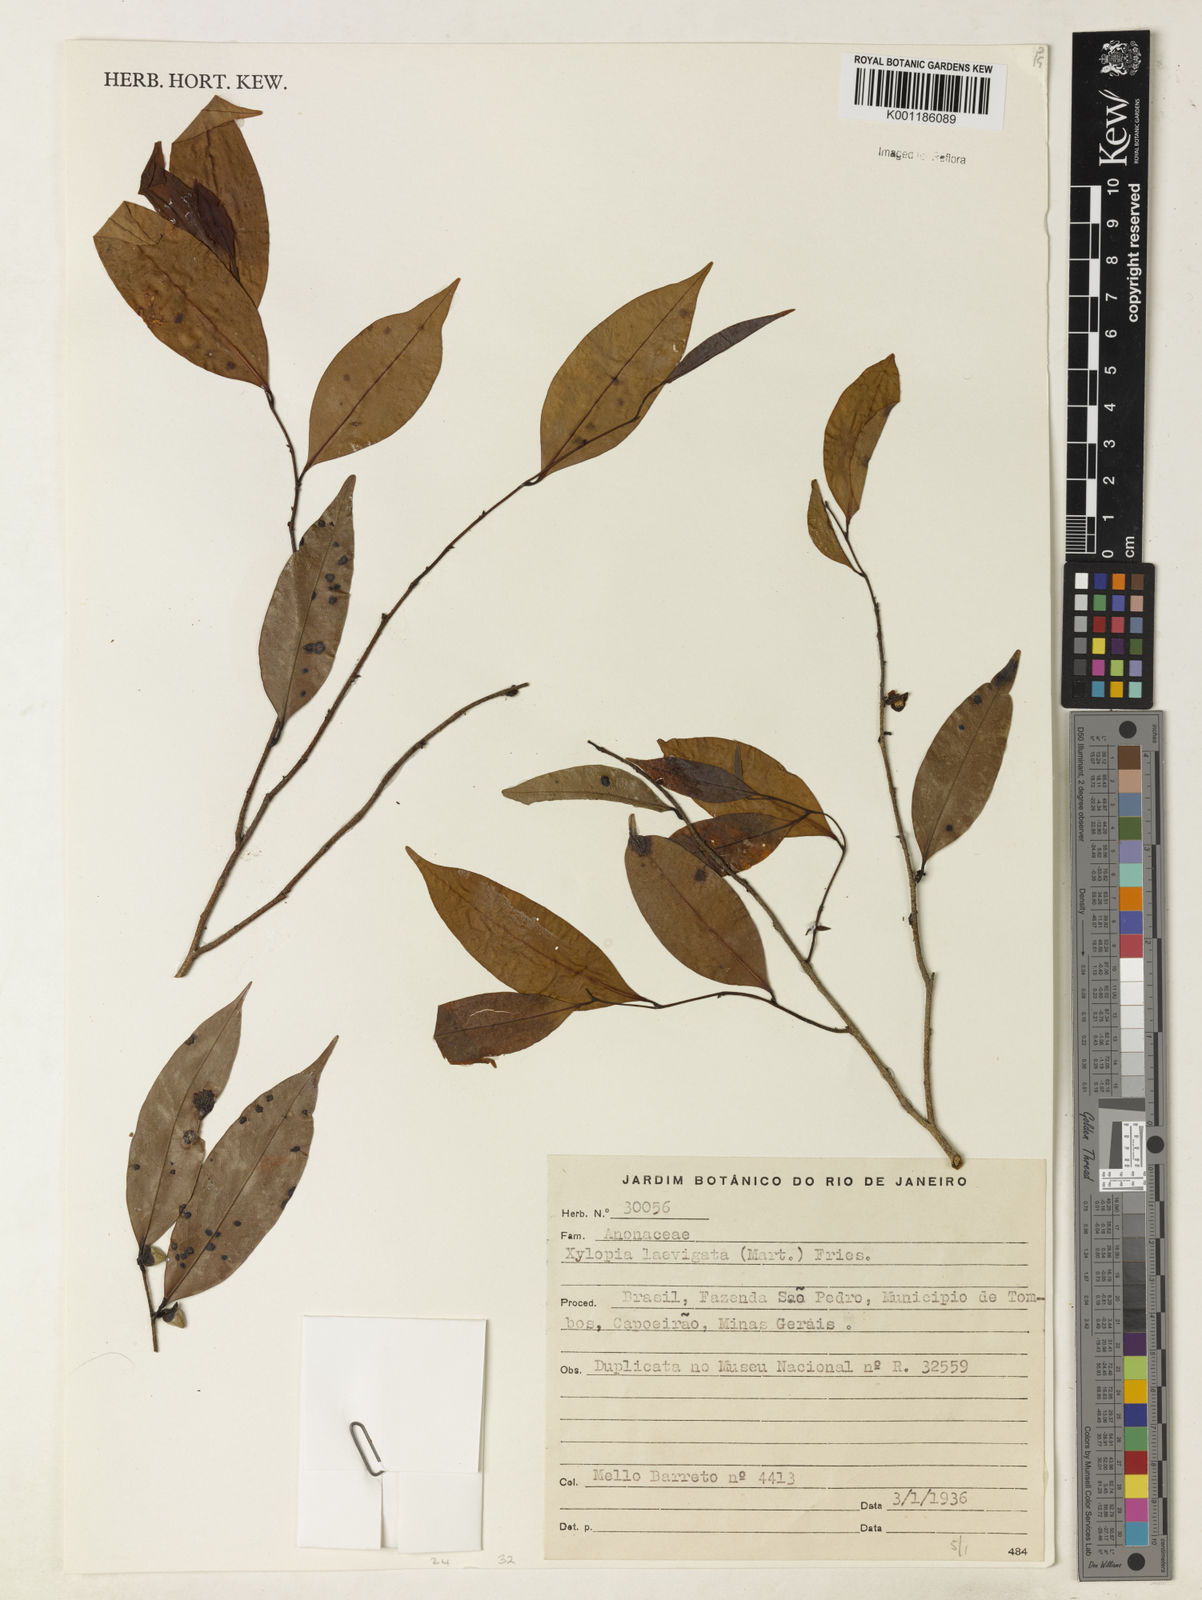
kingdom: Plantae
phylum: Tracheophyta
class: Magnoliopsida
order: Magnoliales
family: Annonaceae
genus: Xylopia
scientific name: Xylopia laevigata
